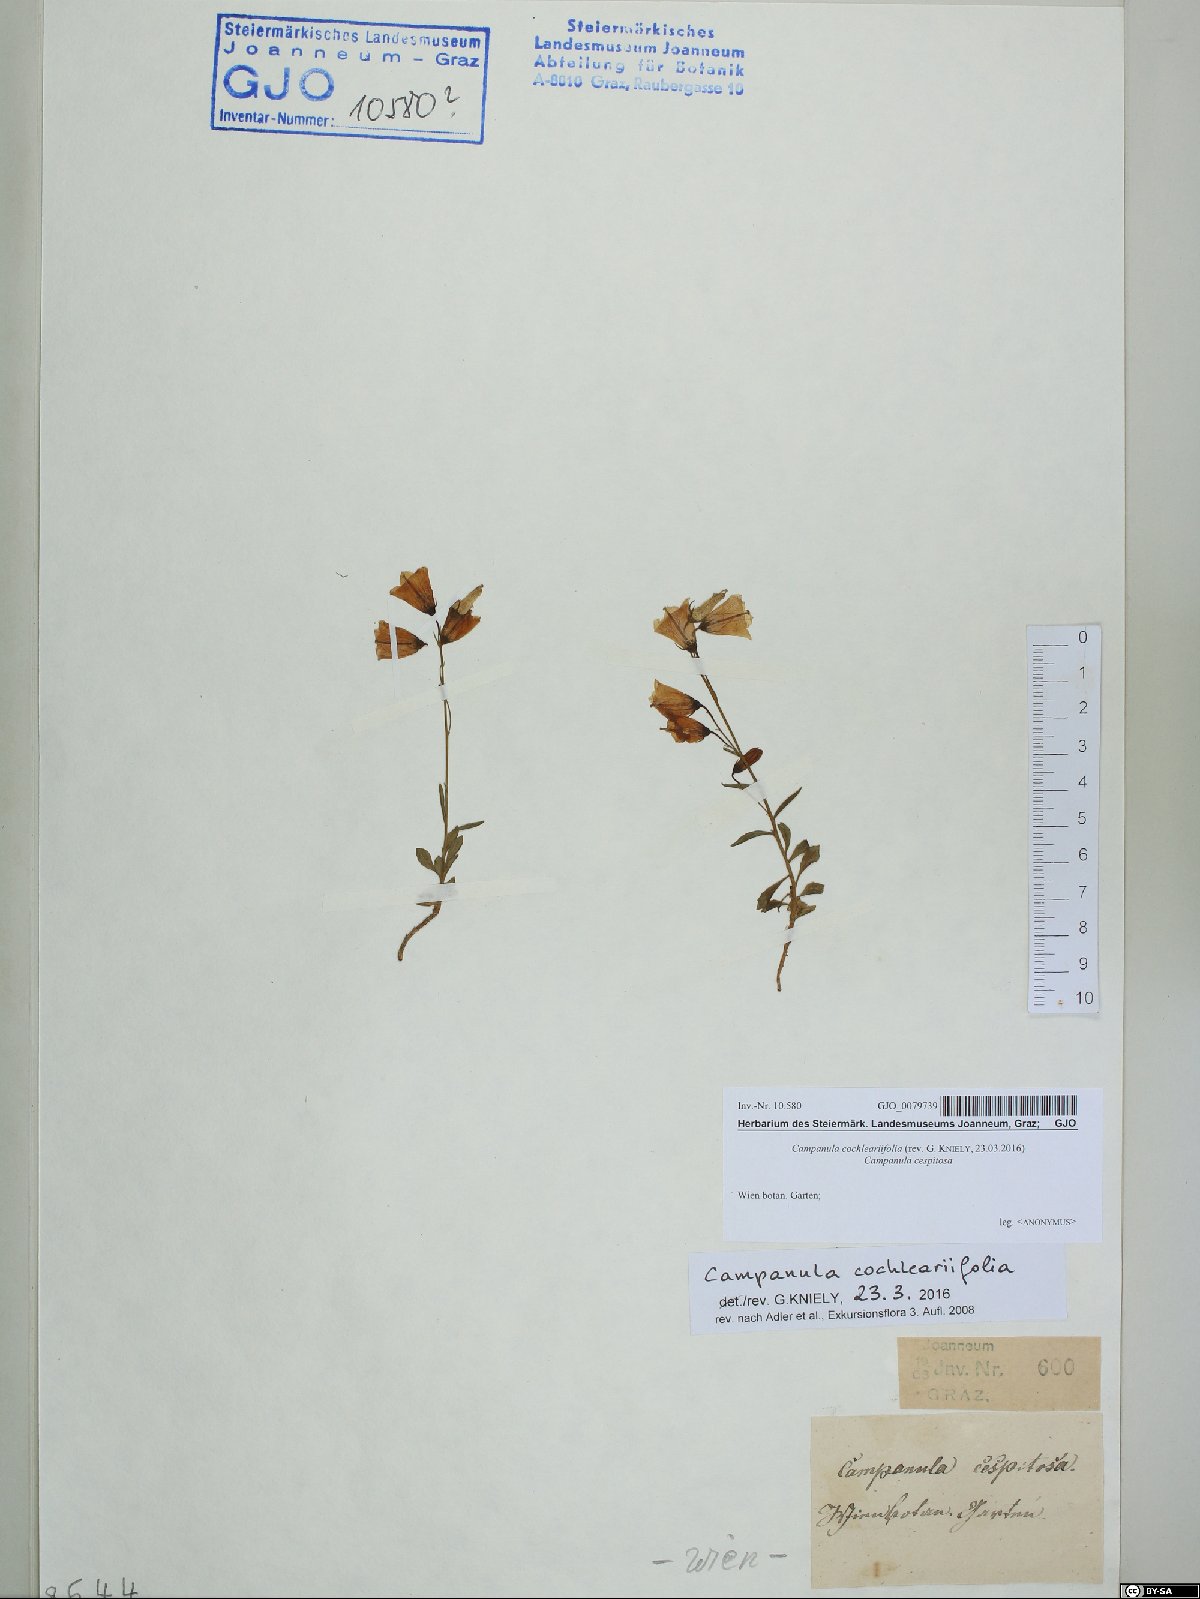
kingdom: Plantae
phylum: Tracheophyta
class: Magnoliopsida
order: Asterales
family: Campanulaceae
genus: Campanula
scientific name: Campanula cochleariifolia
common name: Fairies'-thimbles
